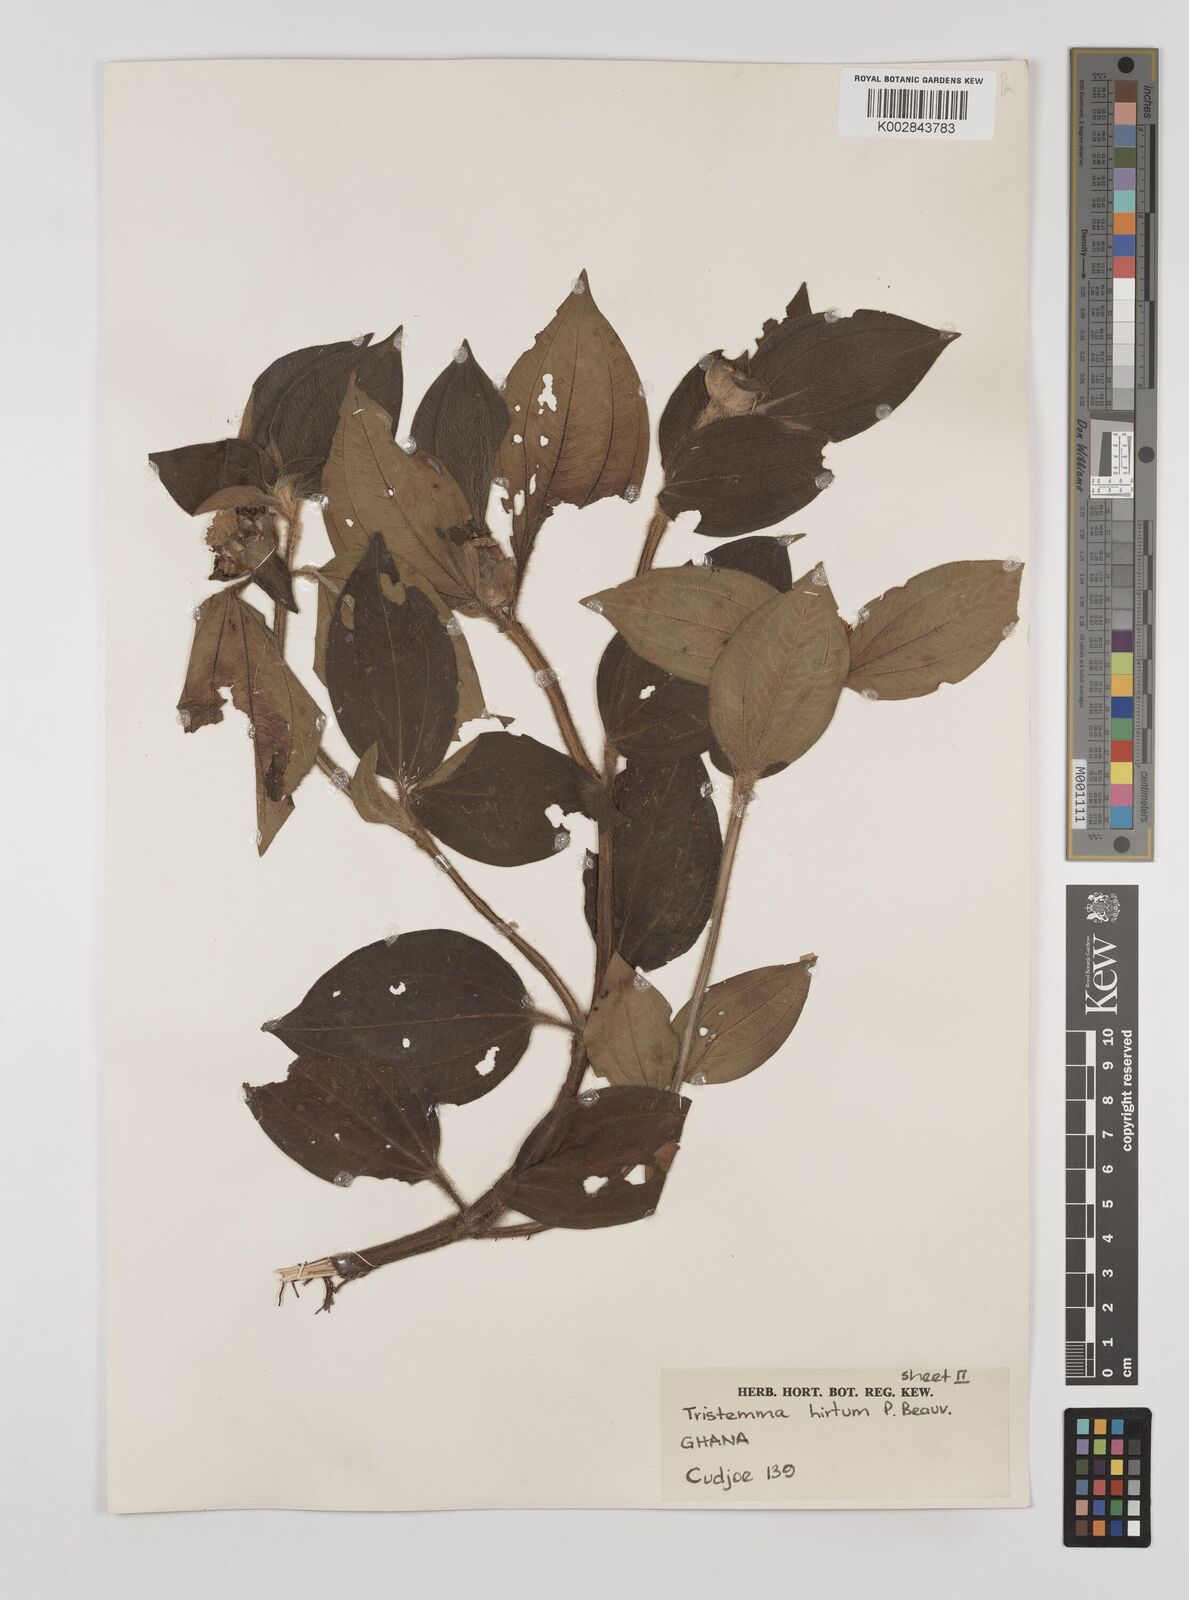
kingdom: Plantae
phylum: Tracheophyta
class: Magnoliopsida
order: Myrtales
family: Melastomataceae
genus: Tristemma
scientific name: Tristemma
